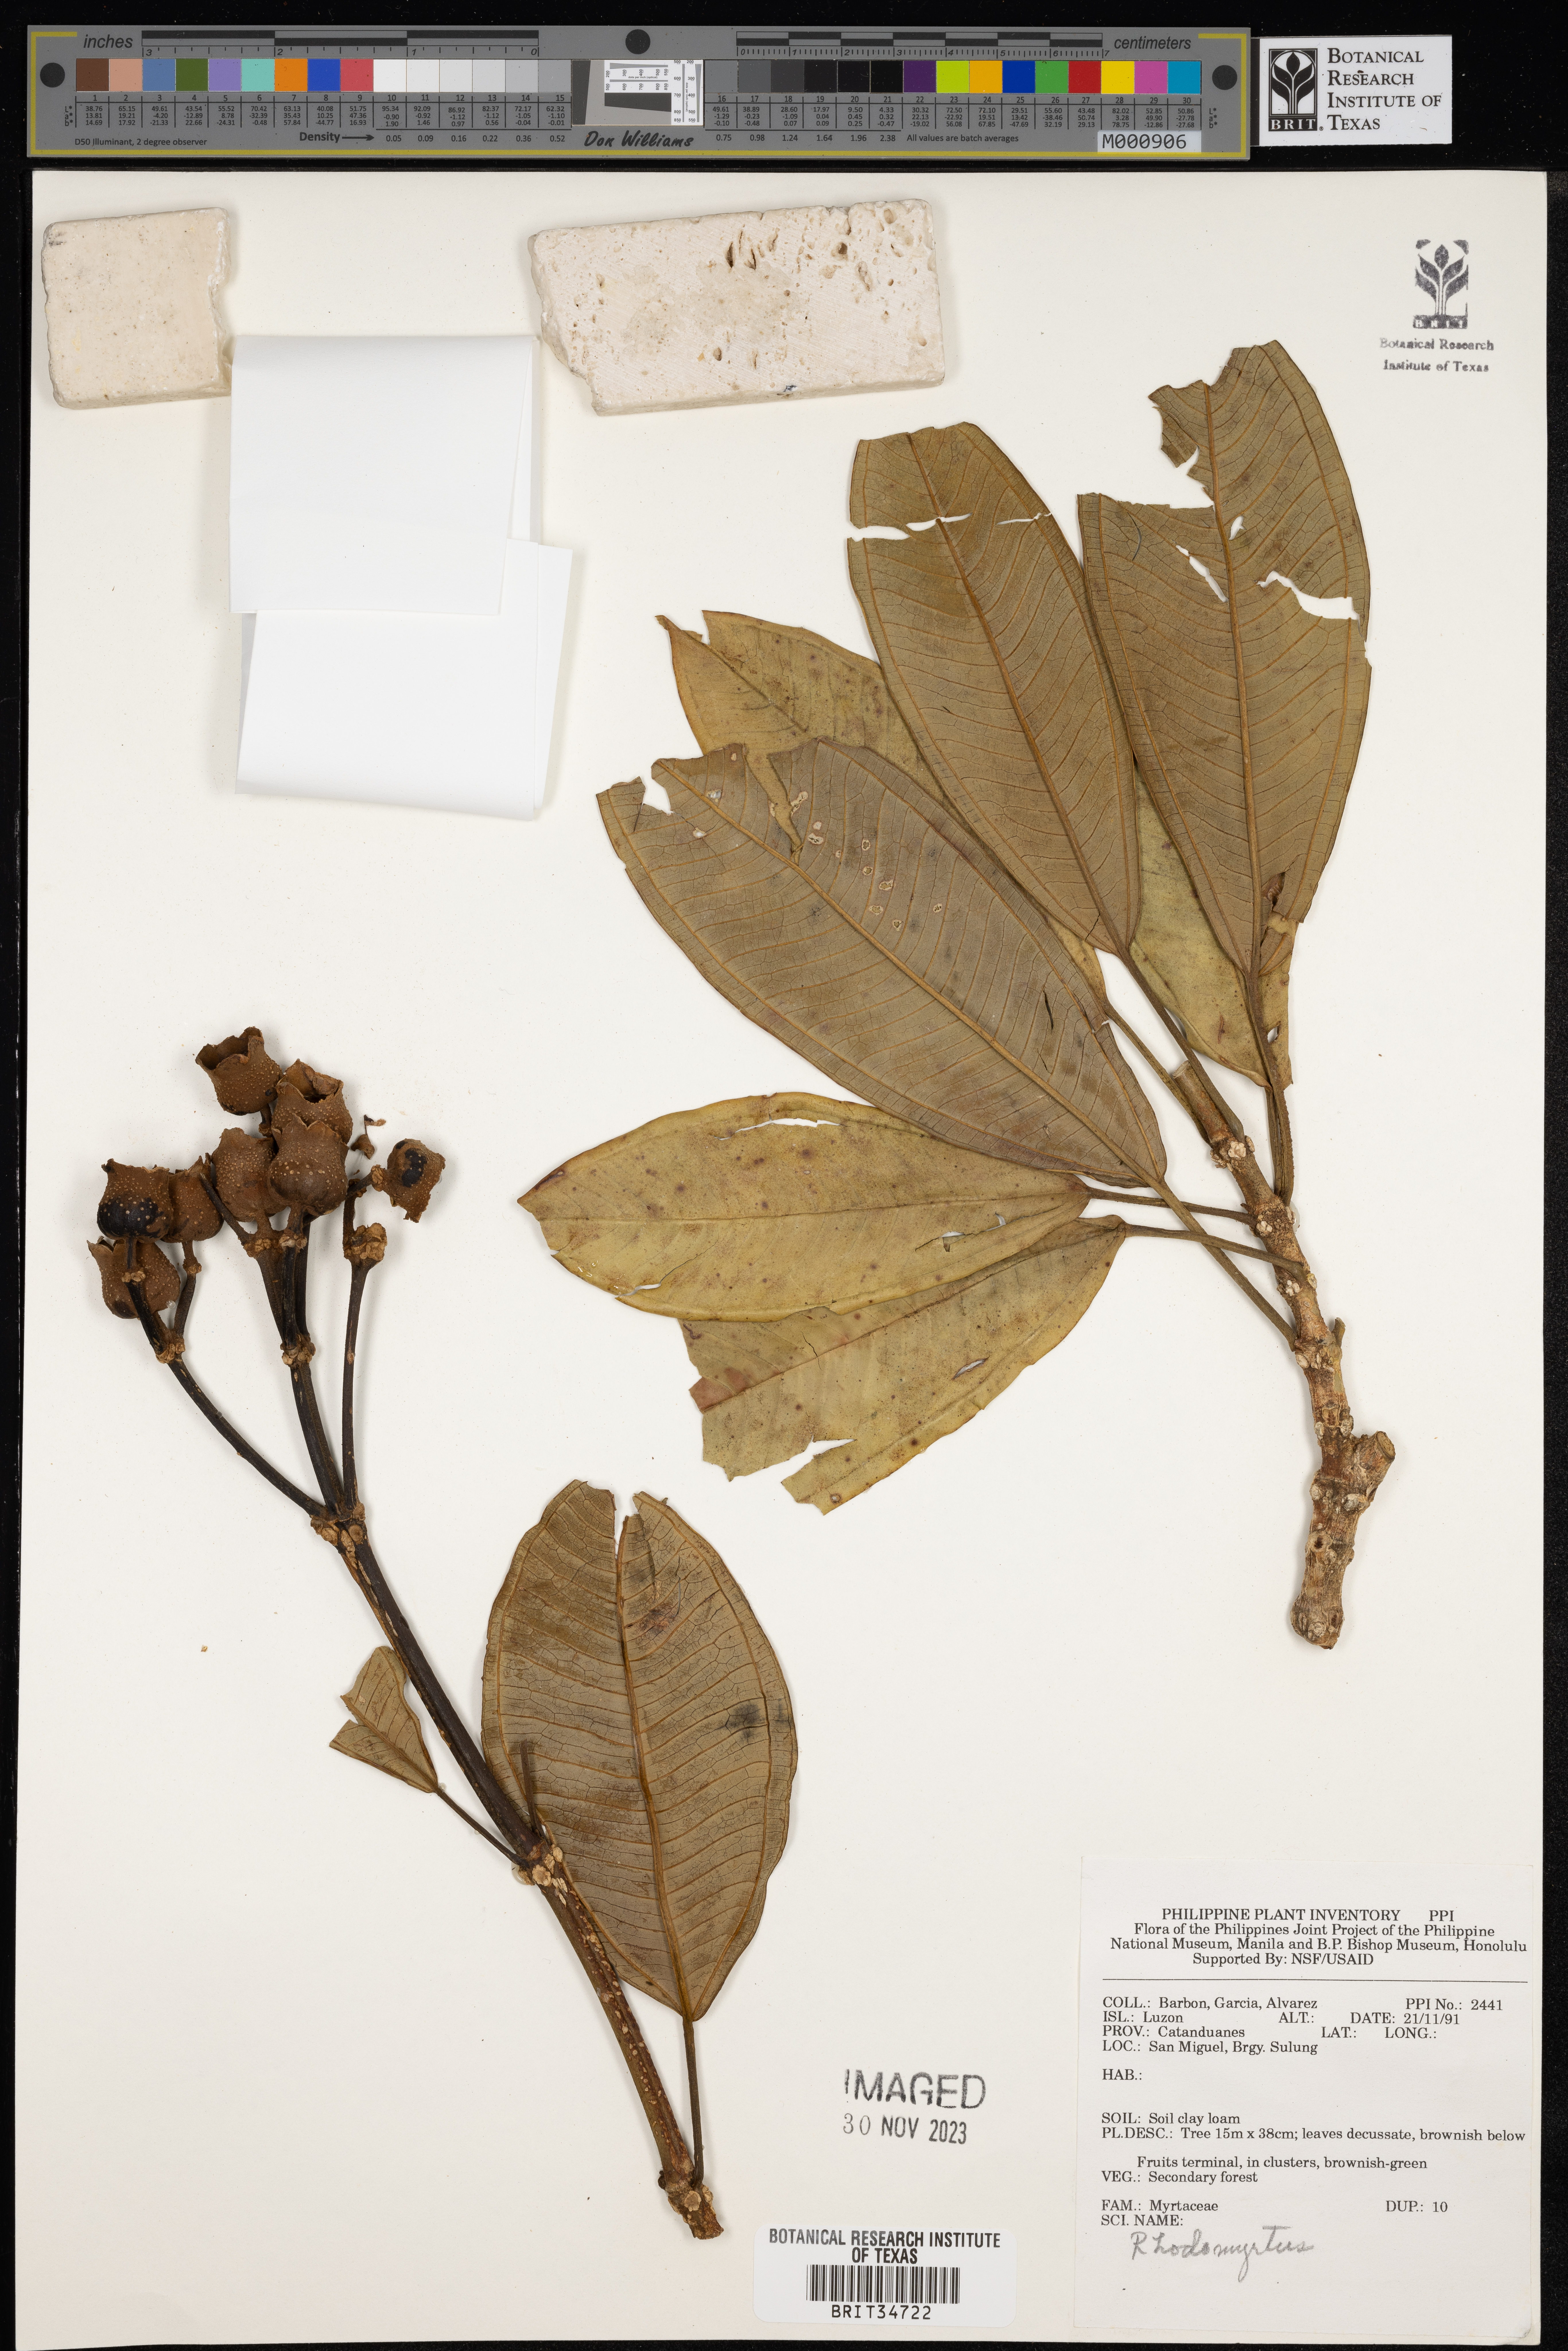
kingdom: Plantae
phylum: Tracheophyta
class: Magnoliopsida
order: Myrtales
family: Myrtaceae
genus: Rhodomyrtus
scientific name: Rhodomyrtus
